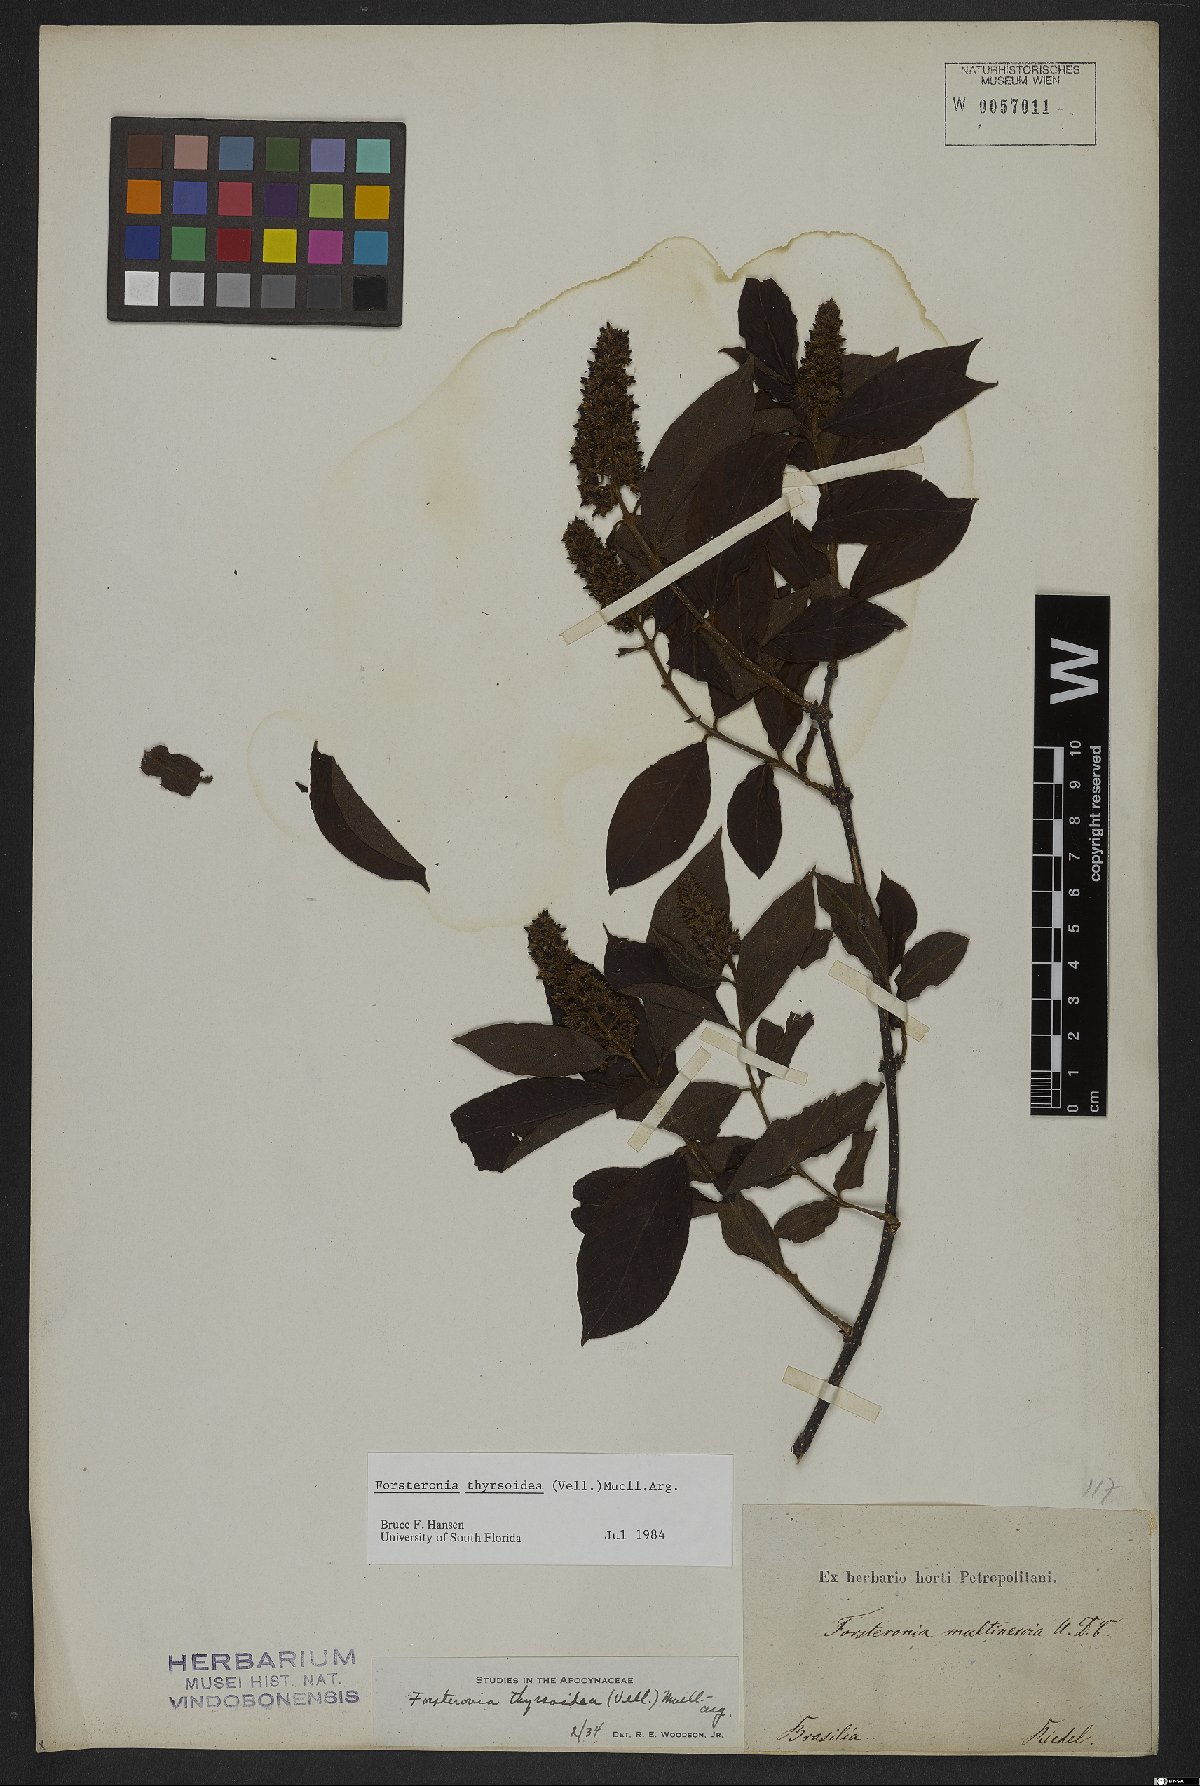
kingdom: Plantae
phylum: Tracheophyta
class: Magnoliopsida
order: Gentianales
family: Apocynaceae
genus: Forsteronia
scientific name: Forsteronia thyrsoidea
